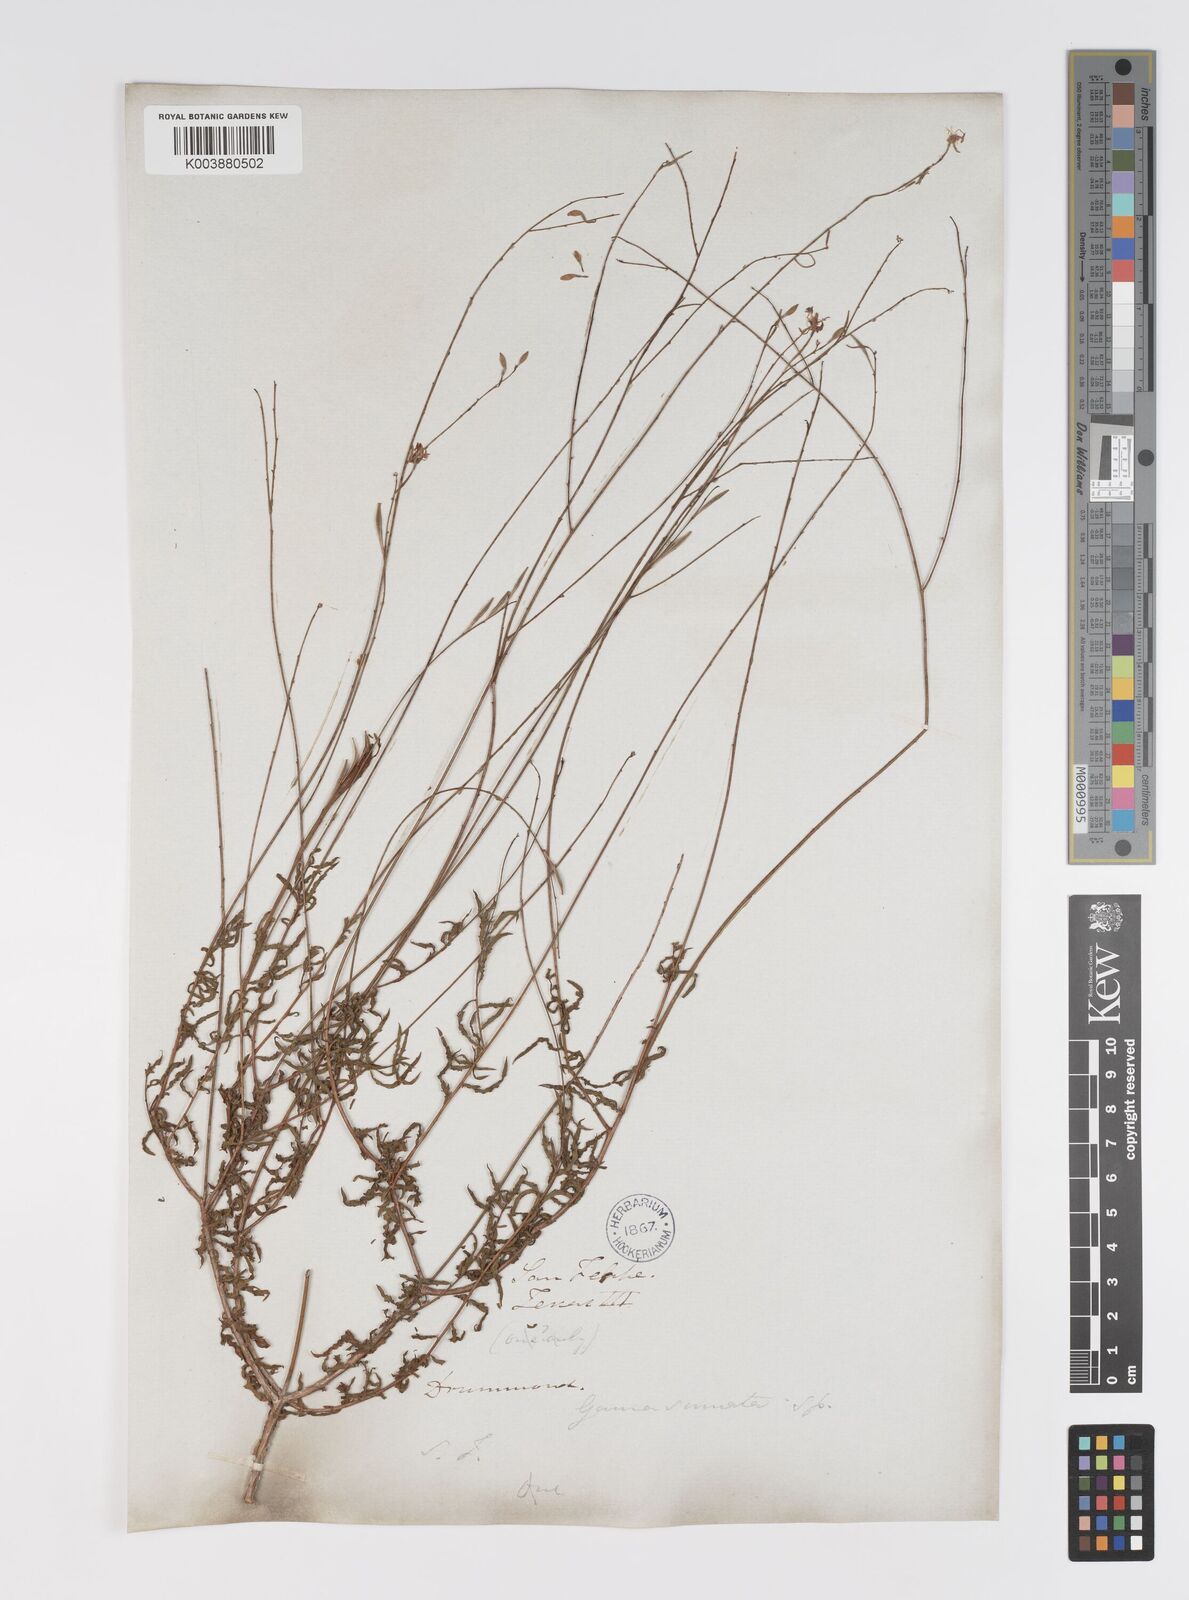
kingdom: Plantae
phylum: Tracheophyta
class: Magnoliopsida
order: Myrtales
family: Onagraceae
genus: Oenothera
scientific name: Oenothera sinuosa
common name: Wavyleaf beeblossom
